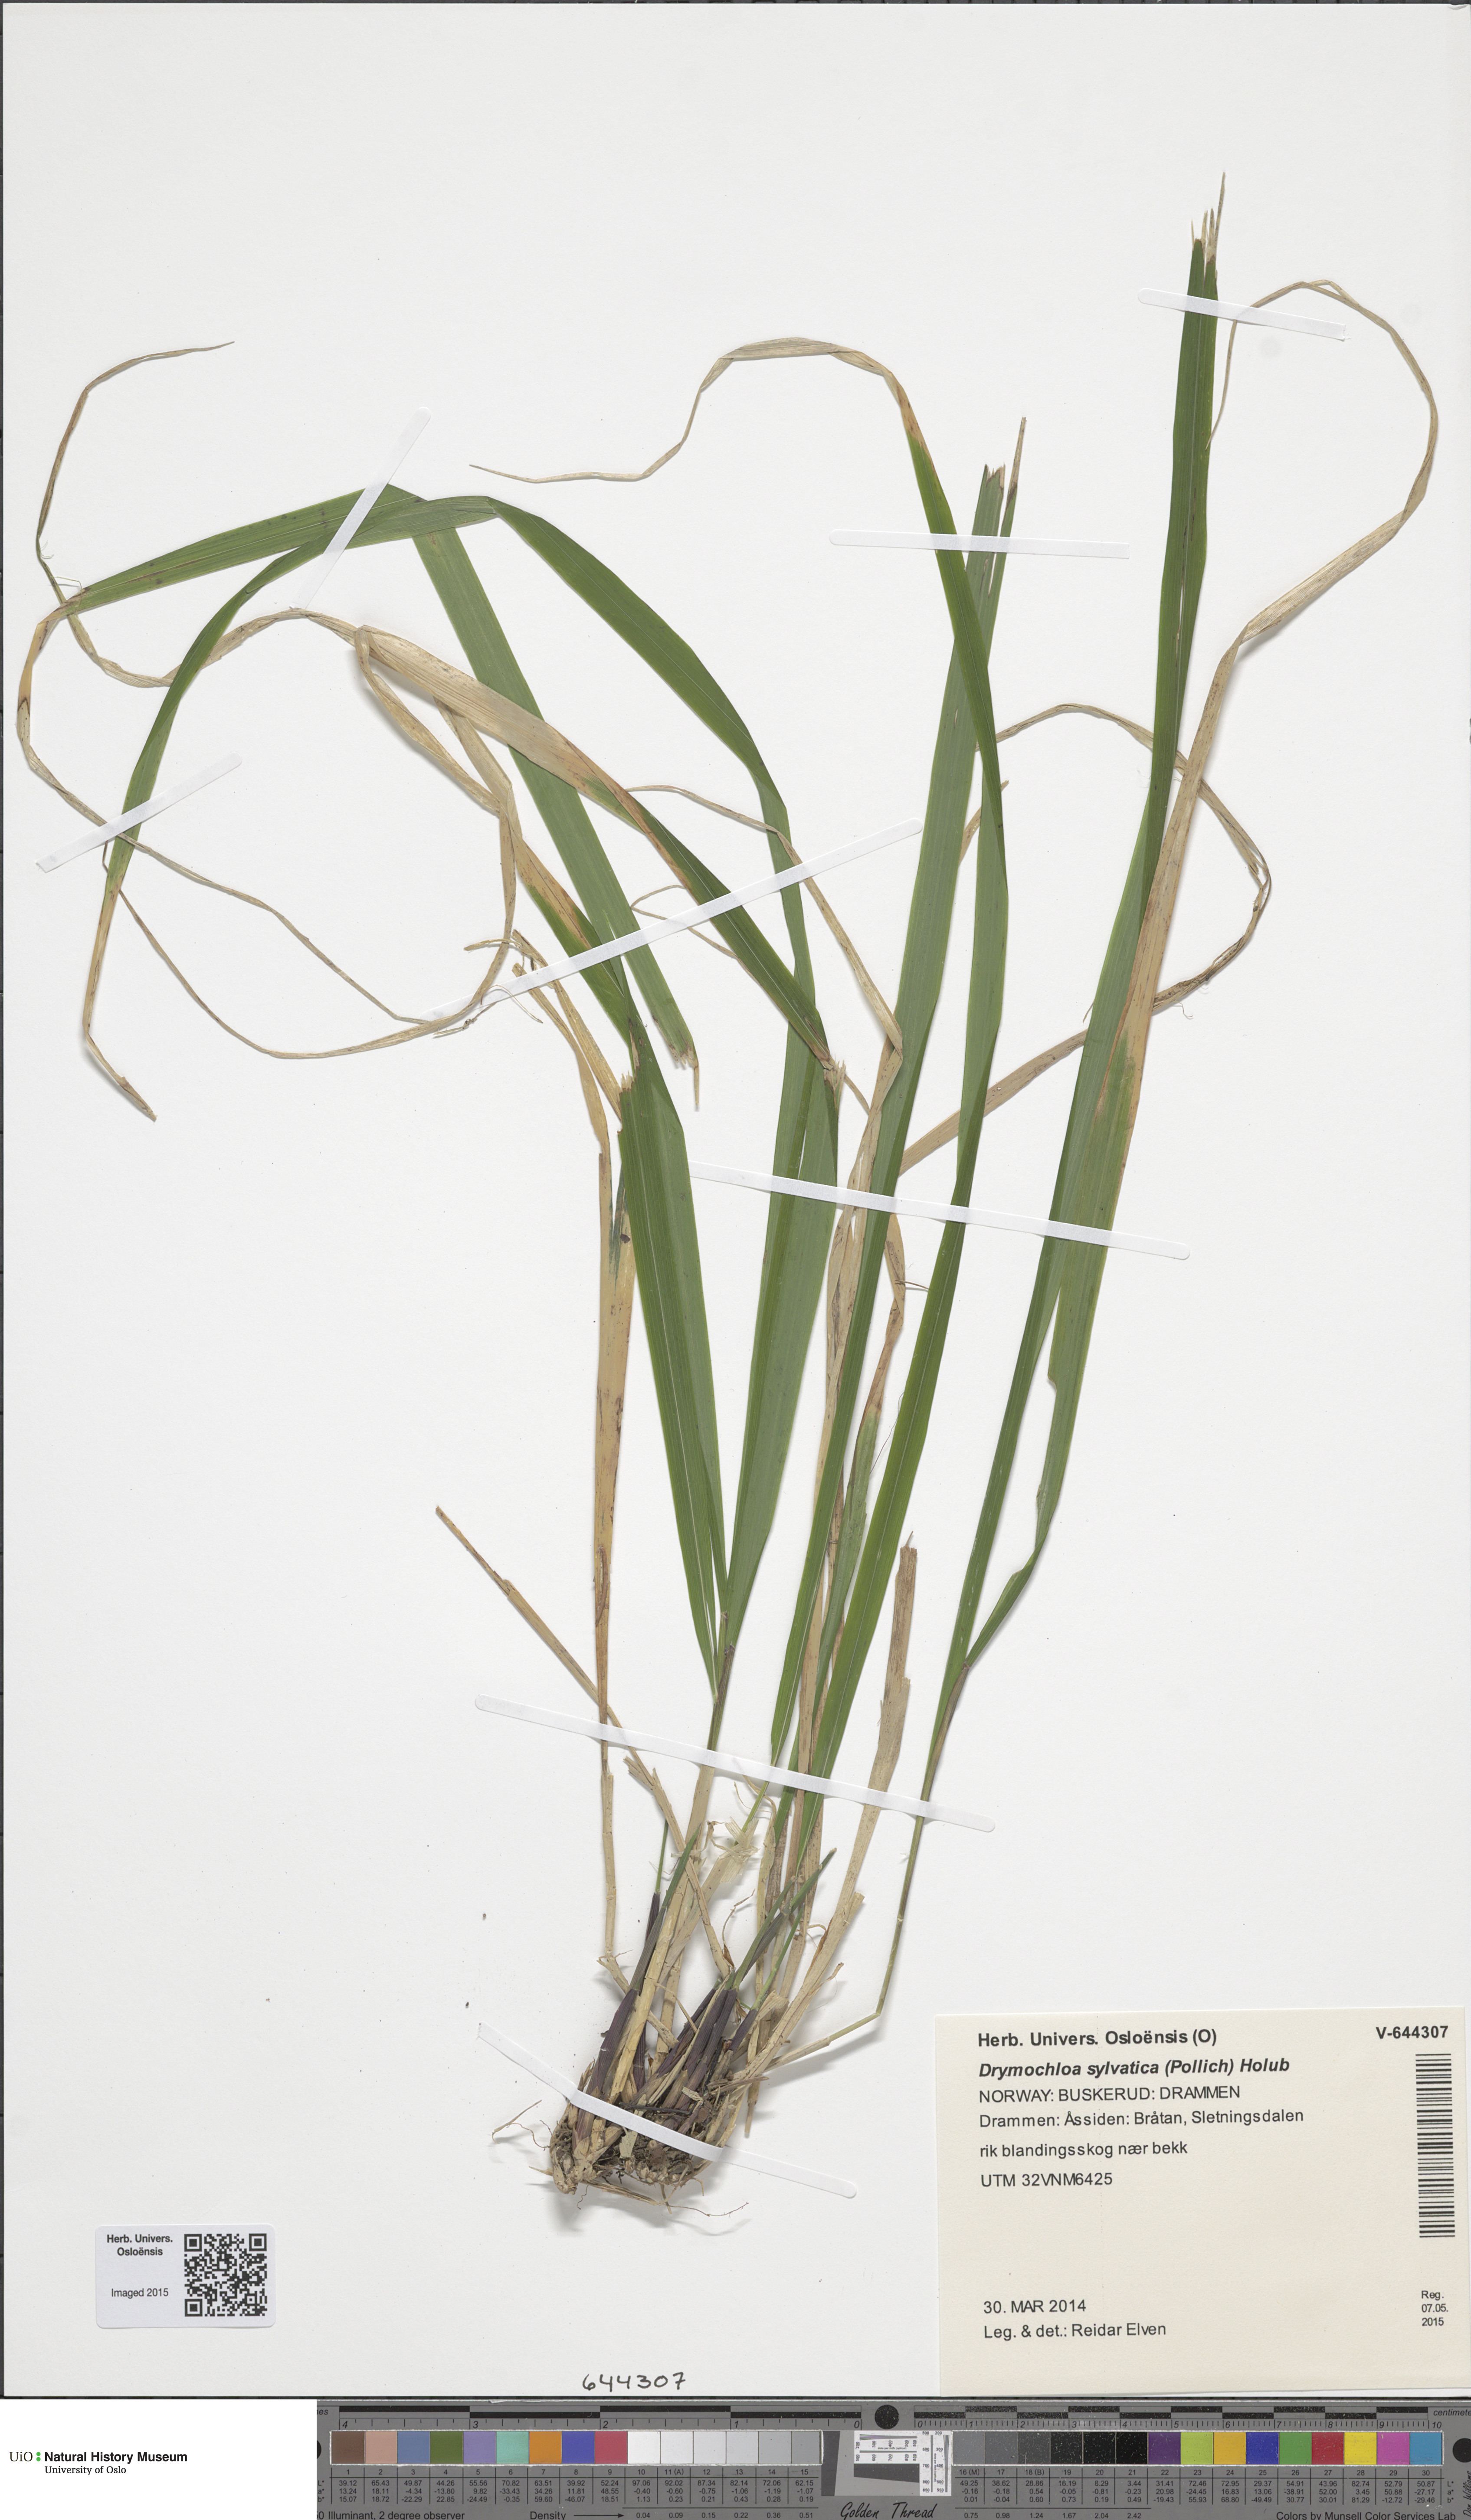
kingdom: Plantae
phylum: Tracheophyta
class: Liliopsida
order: Poales
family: Poaceae
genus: Festuca
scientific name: Festuca altissima
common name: Wood fescue
